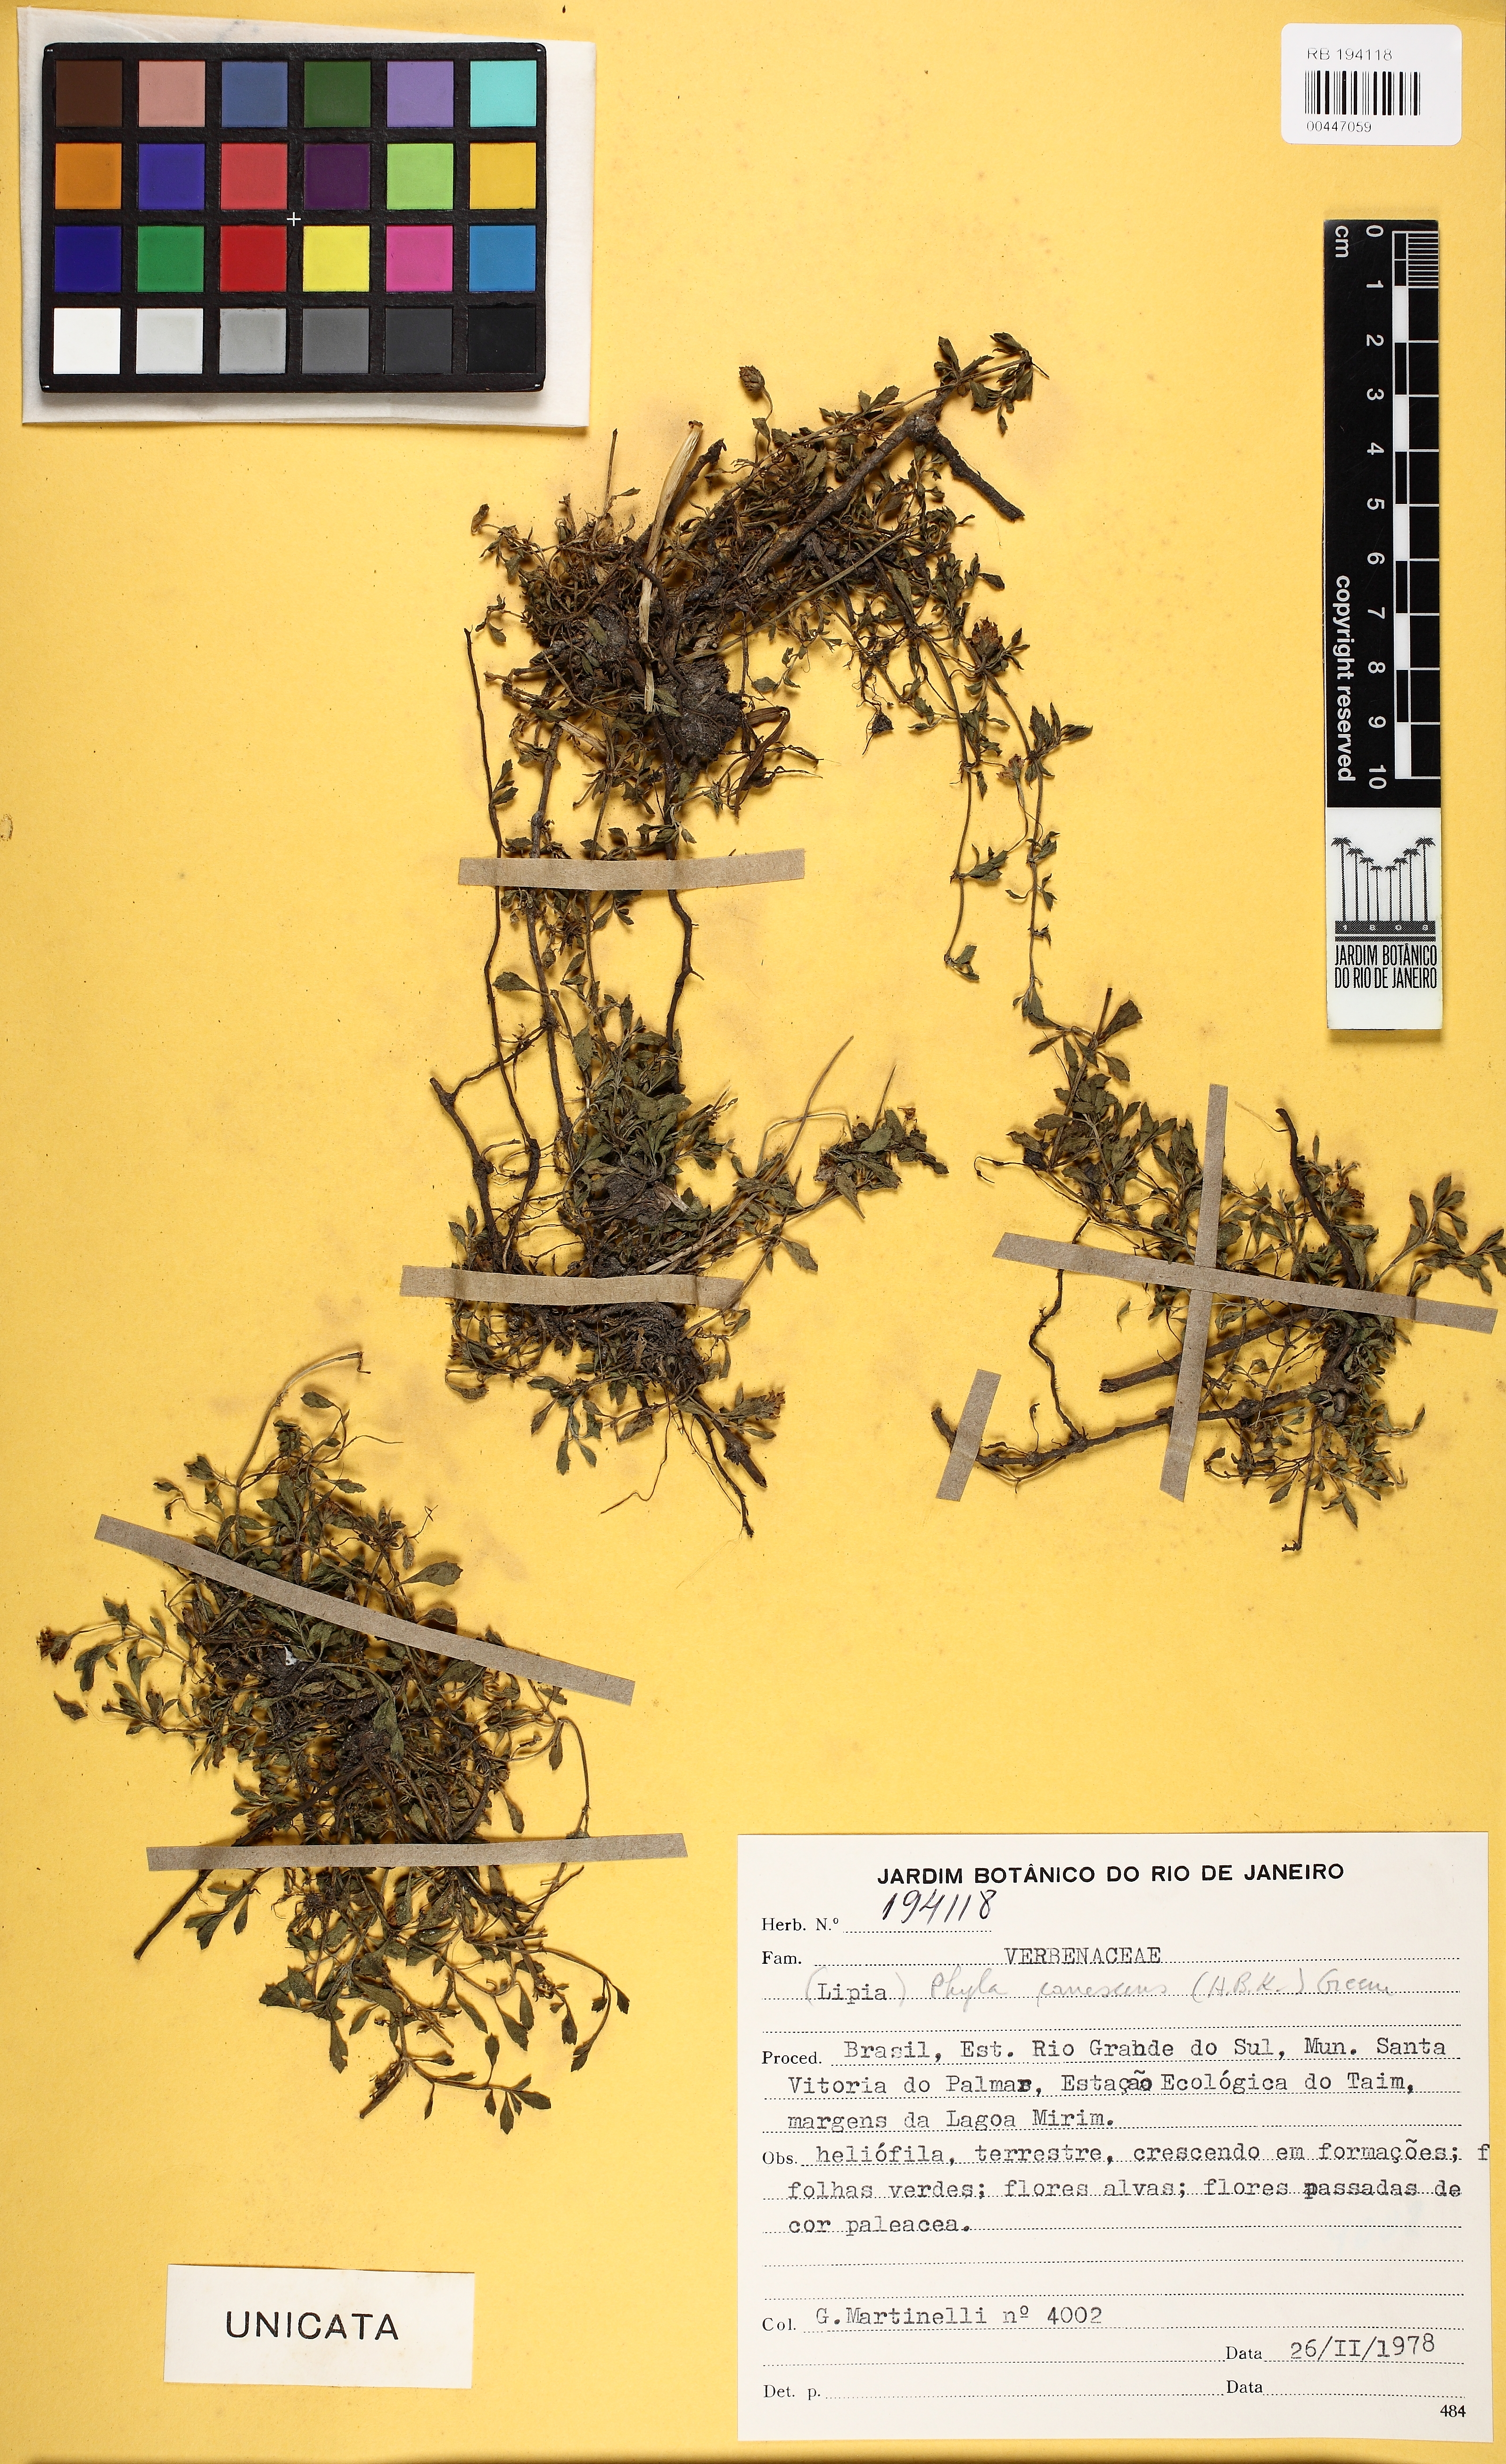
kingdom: Plantae
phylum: Tracheophyta
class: Magnoliopsida
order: Lamiales
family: Verbenaceae
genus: Phyla
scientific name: Phyla
